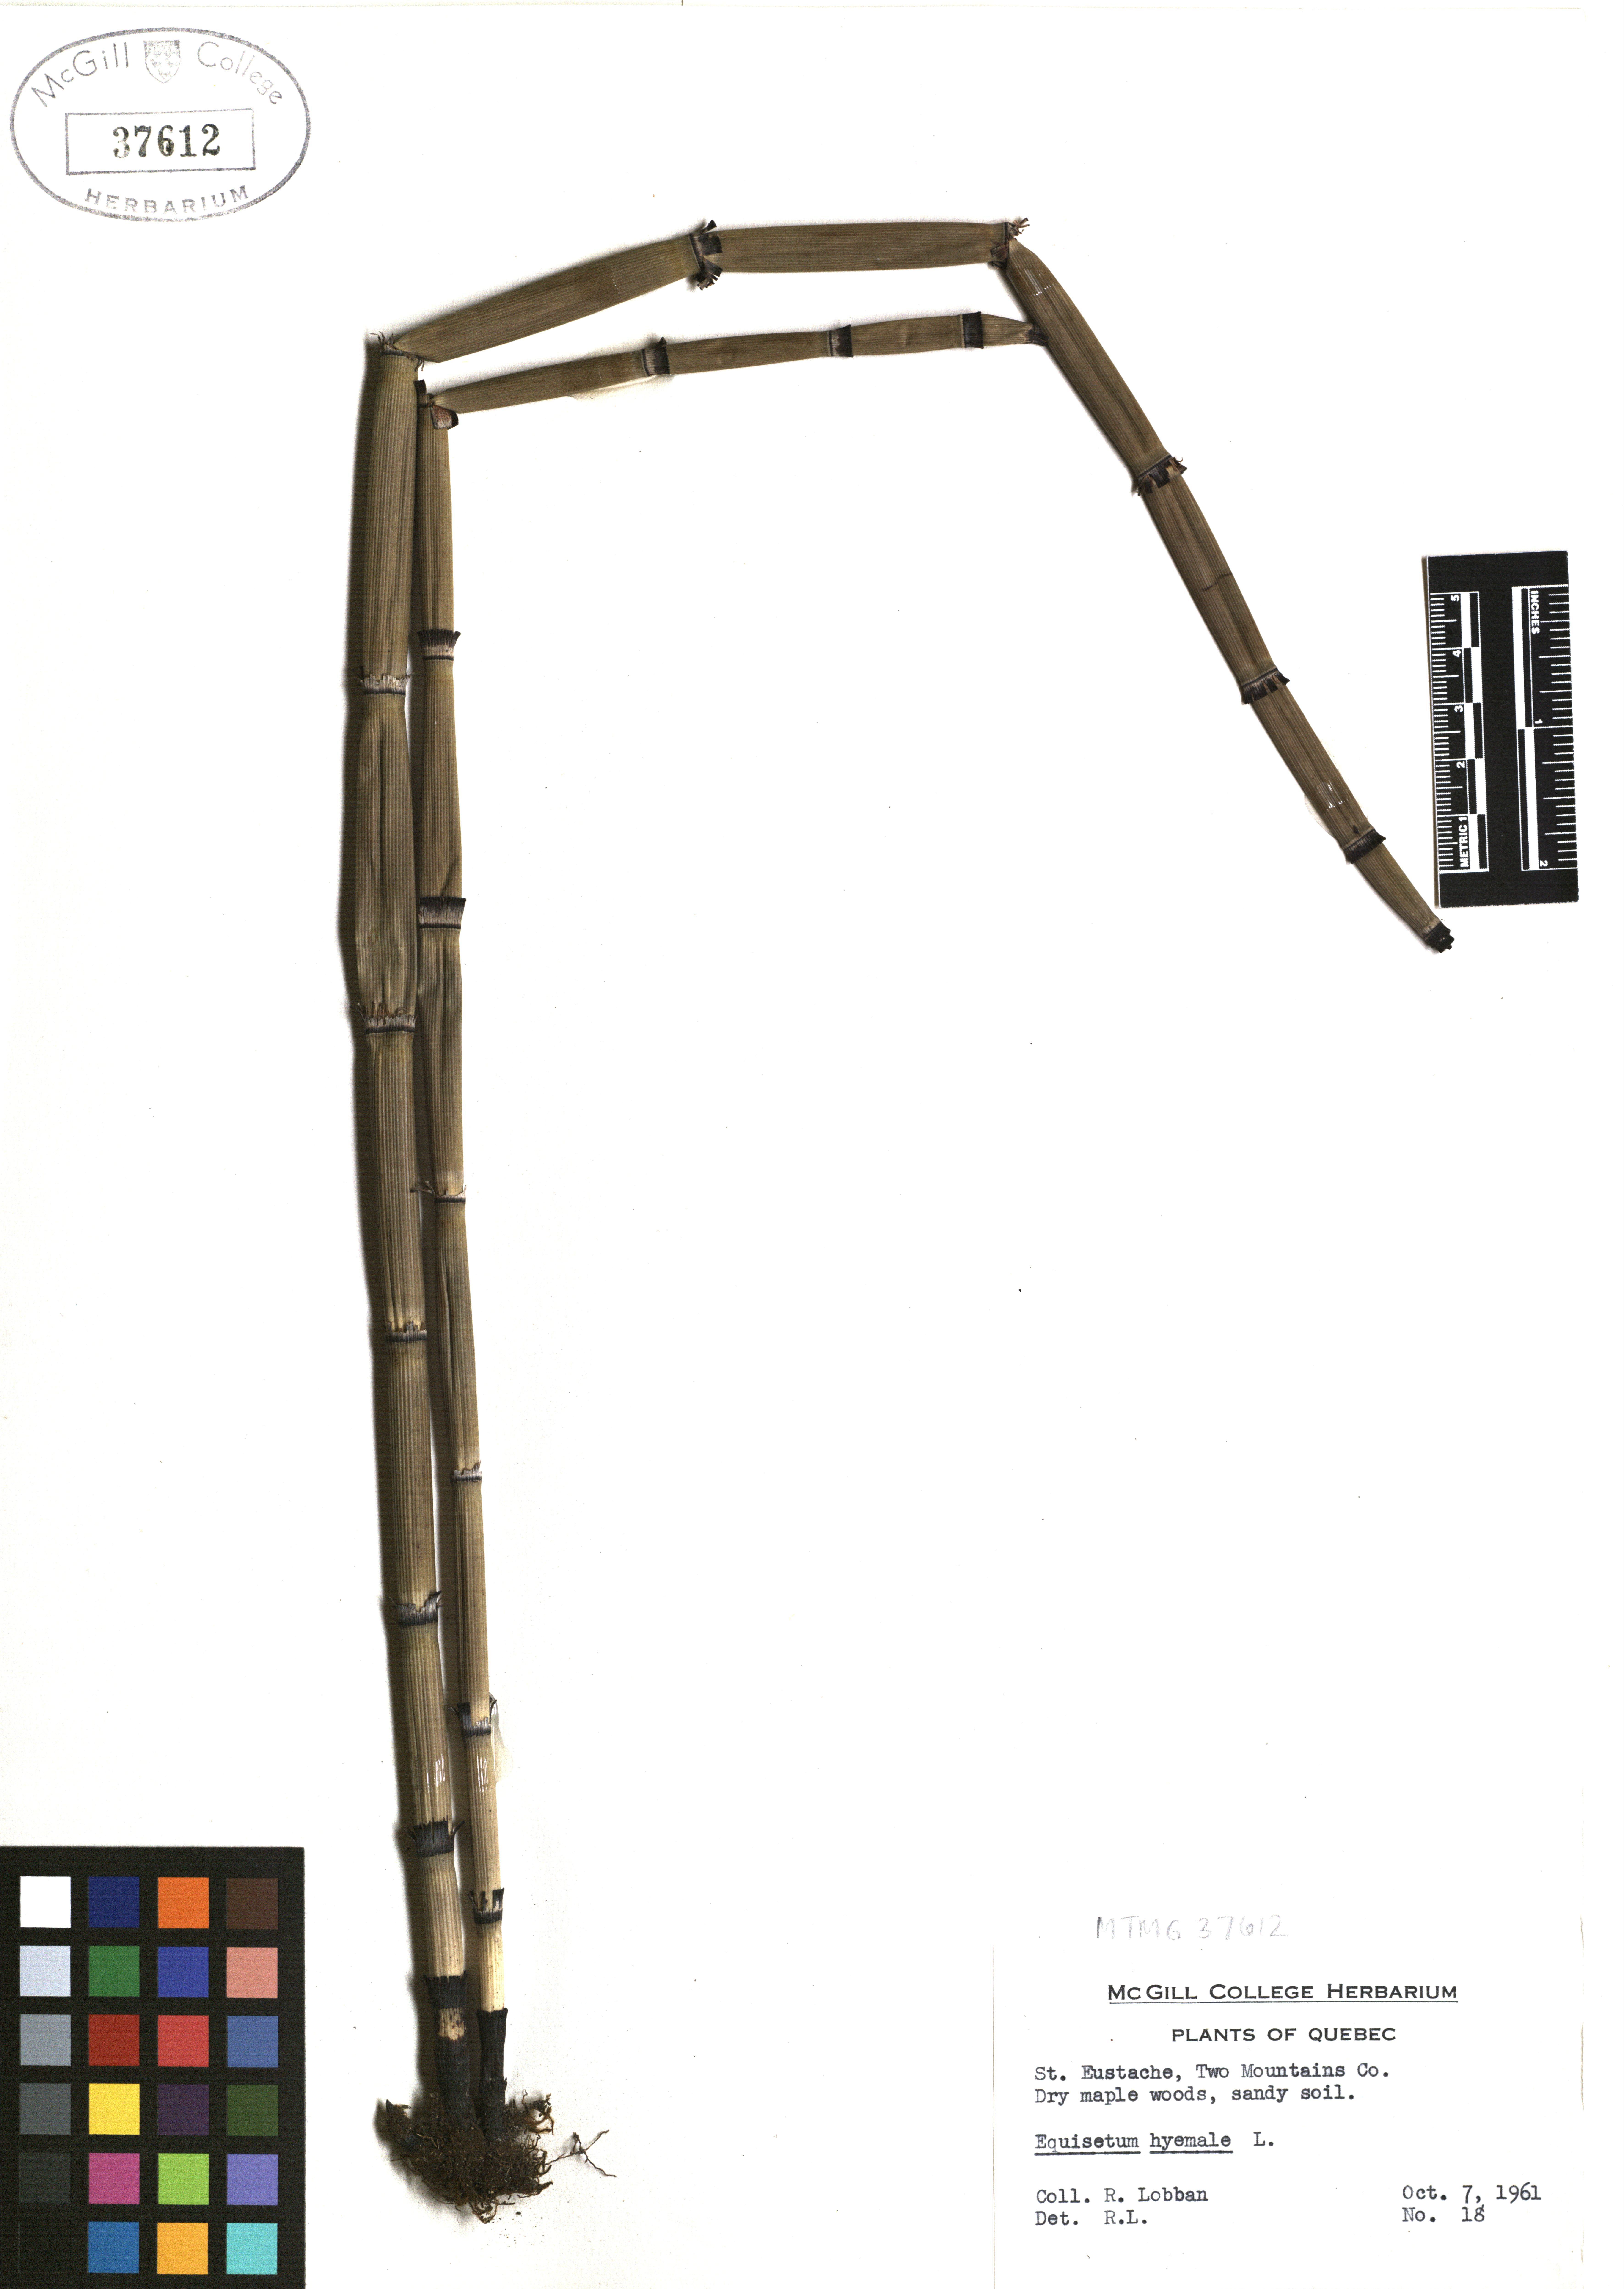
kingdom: Plantae
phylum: Tracheophyta
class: Polypodiopsida
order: Equisetales
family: Equisetaceae
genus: Equisetum
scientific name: Equisetum hyemale
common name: Rough horsetail
